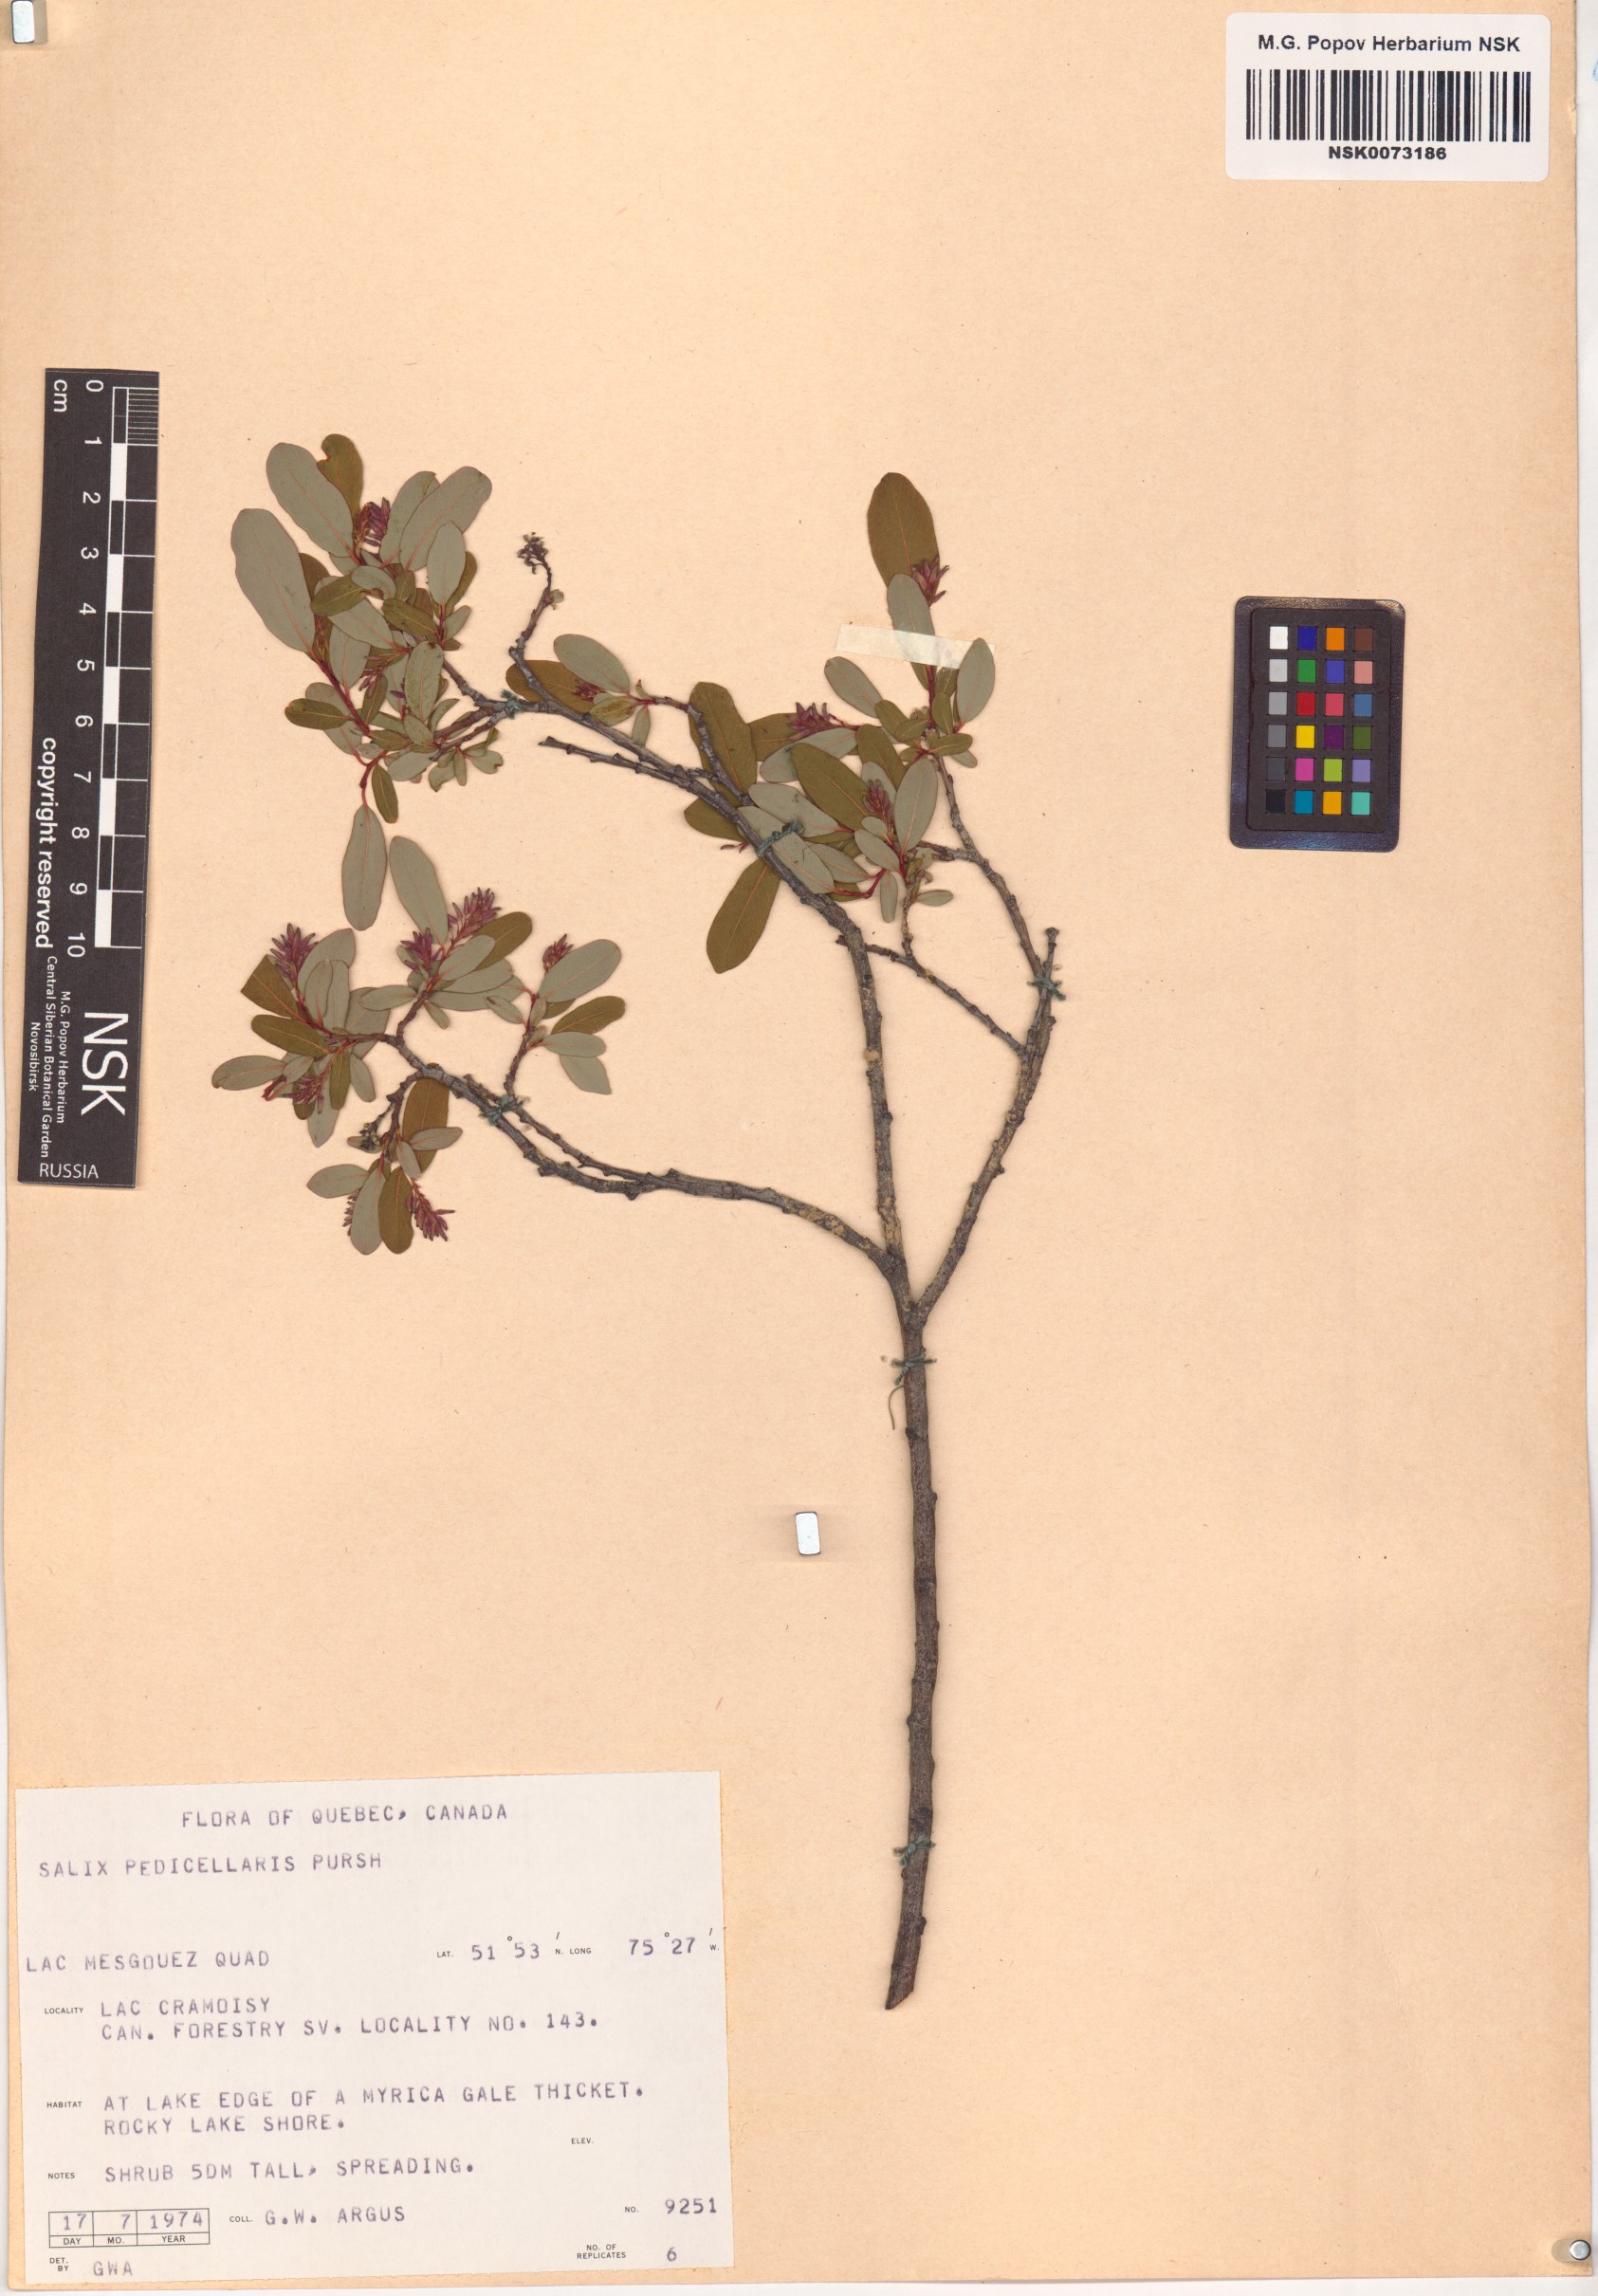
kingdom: Plantae
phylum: Tracheophyta
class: Magnoliopsida
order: Malpighiales
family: Salicaceae
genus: Salix
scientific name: Salix pedicellaris
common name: Bog willow
